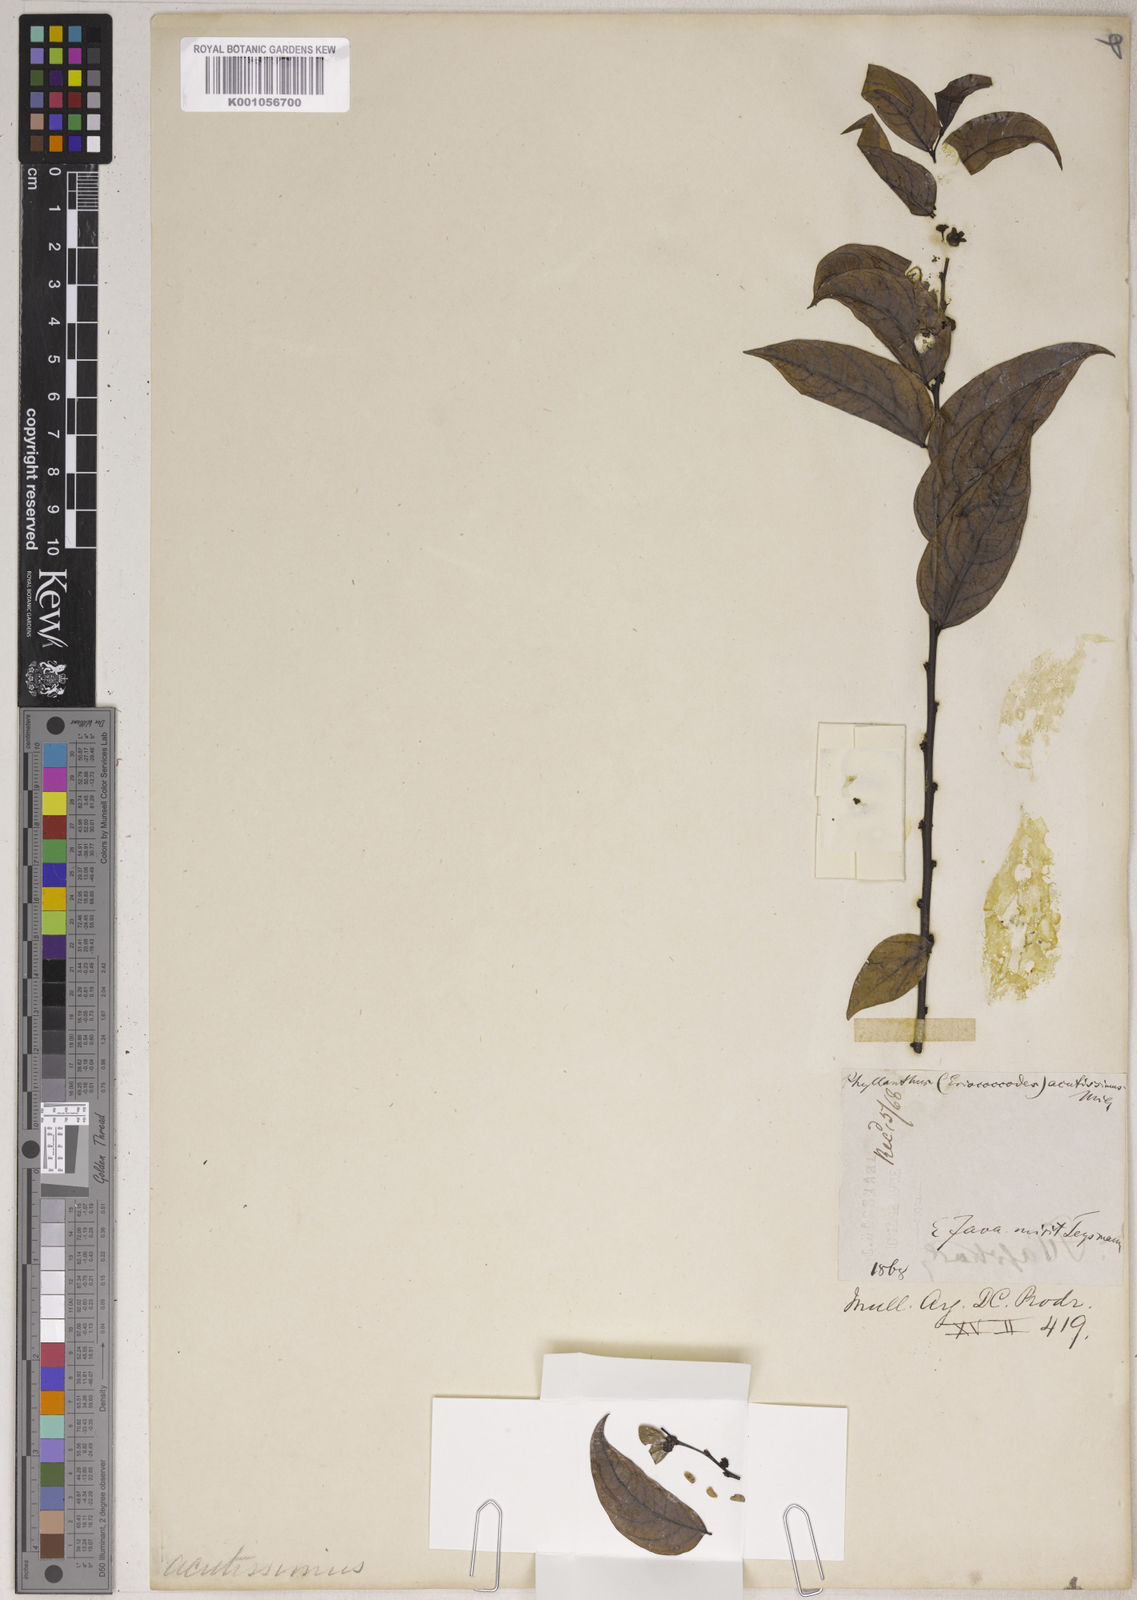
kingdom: Plantae
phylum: Tracheophyta
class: Magnoliopsida
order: Malpighiales
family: Phyllanthaceae
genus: Phyllanthus
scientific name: Phyllanthus acutissimus
